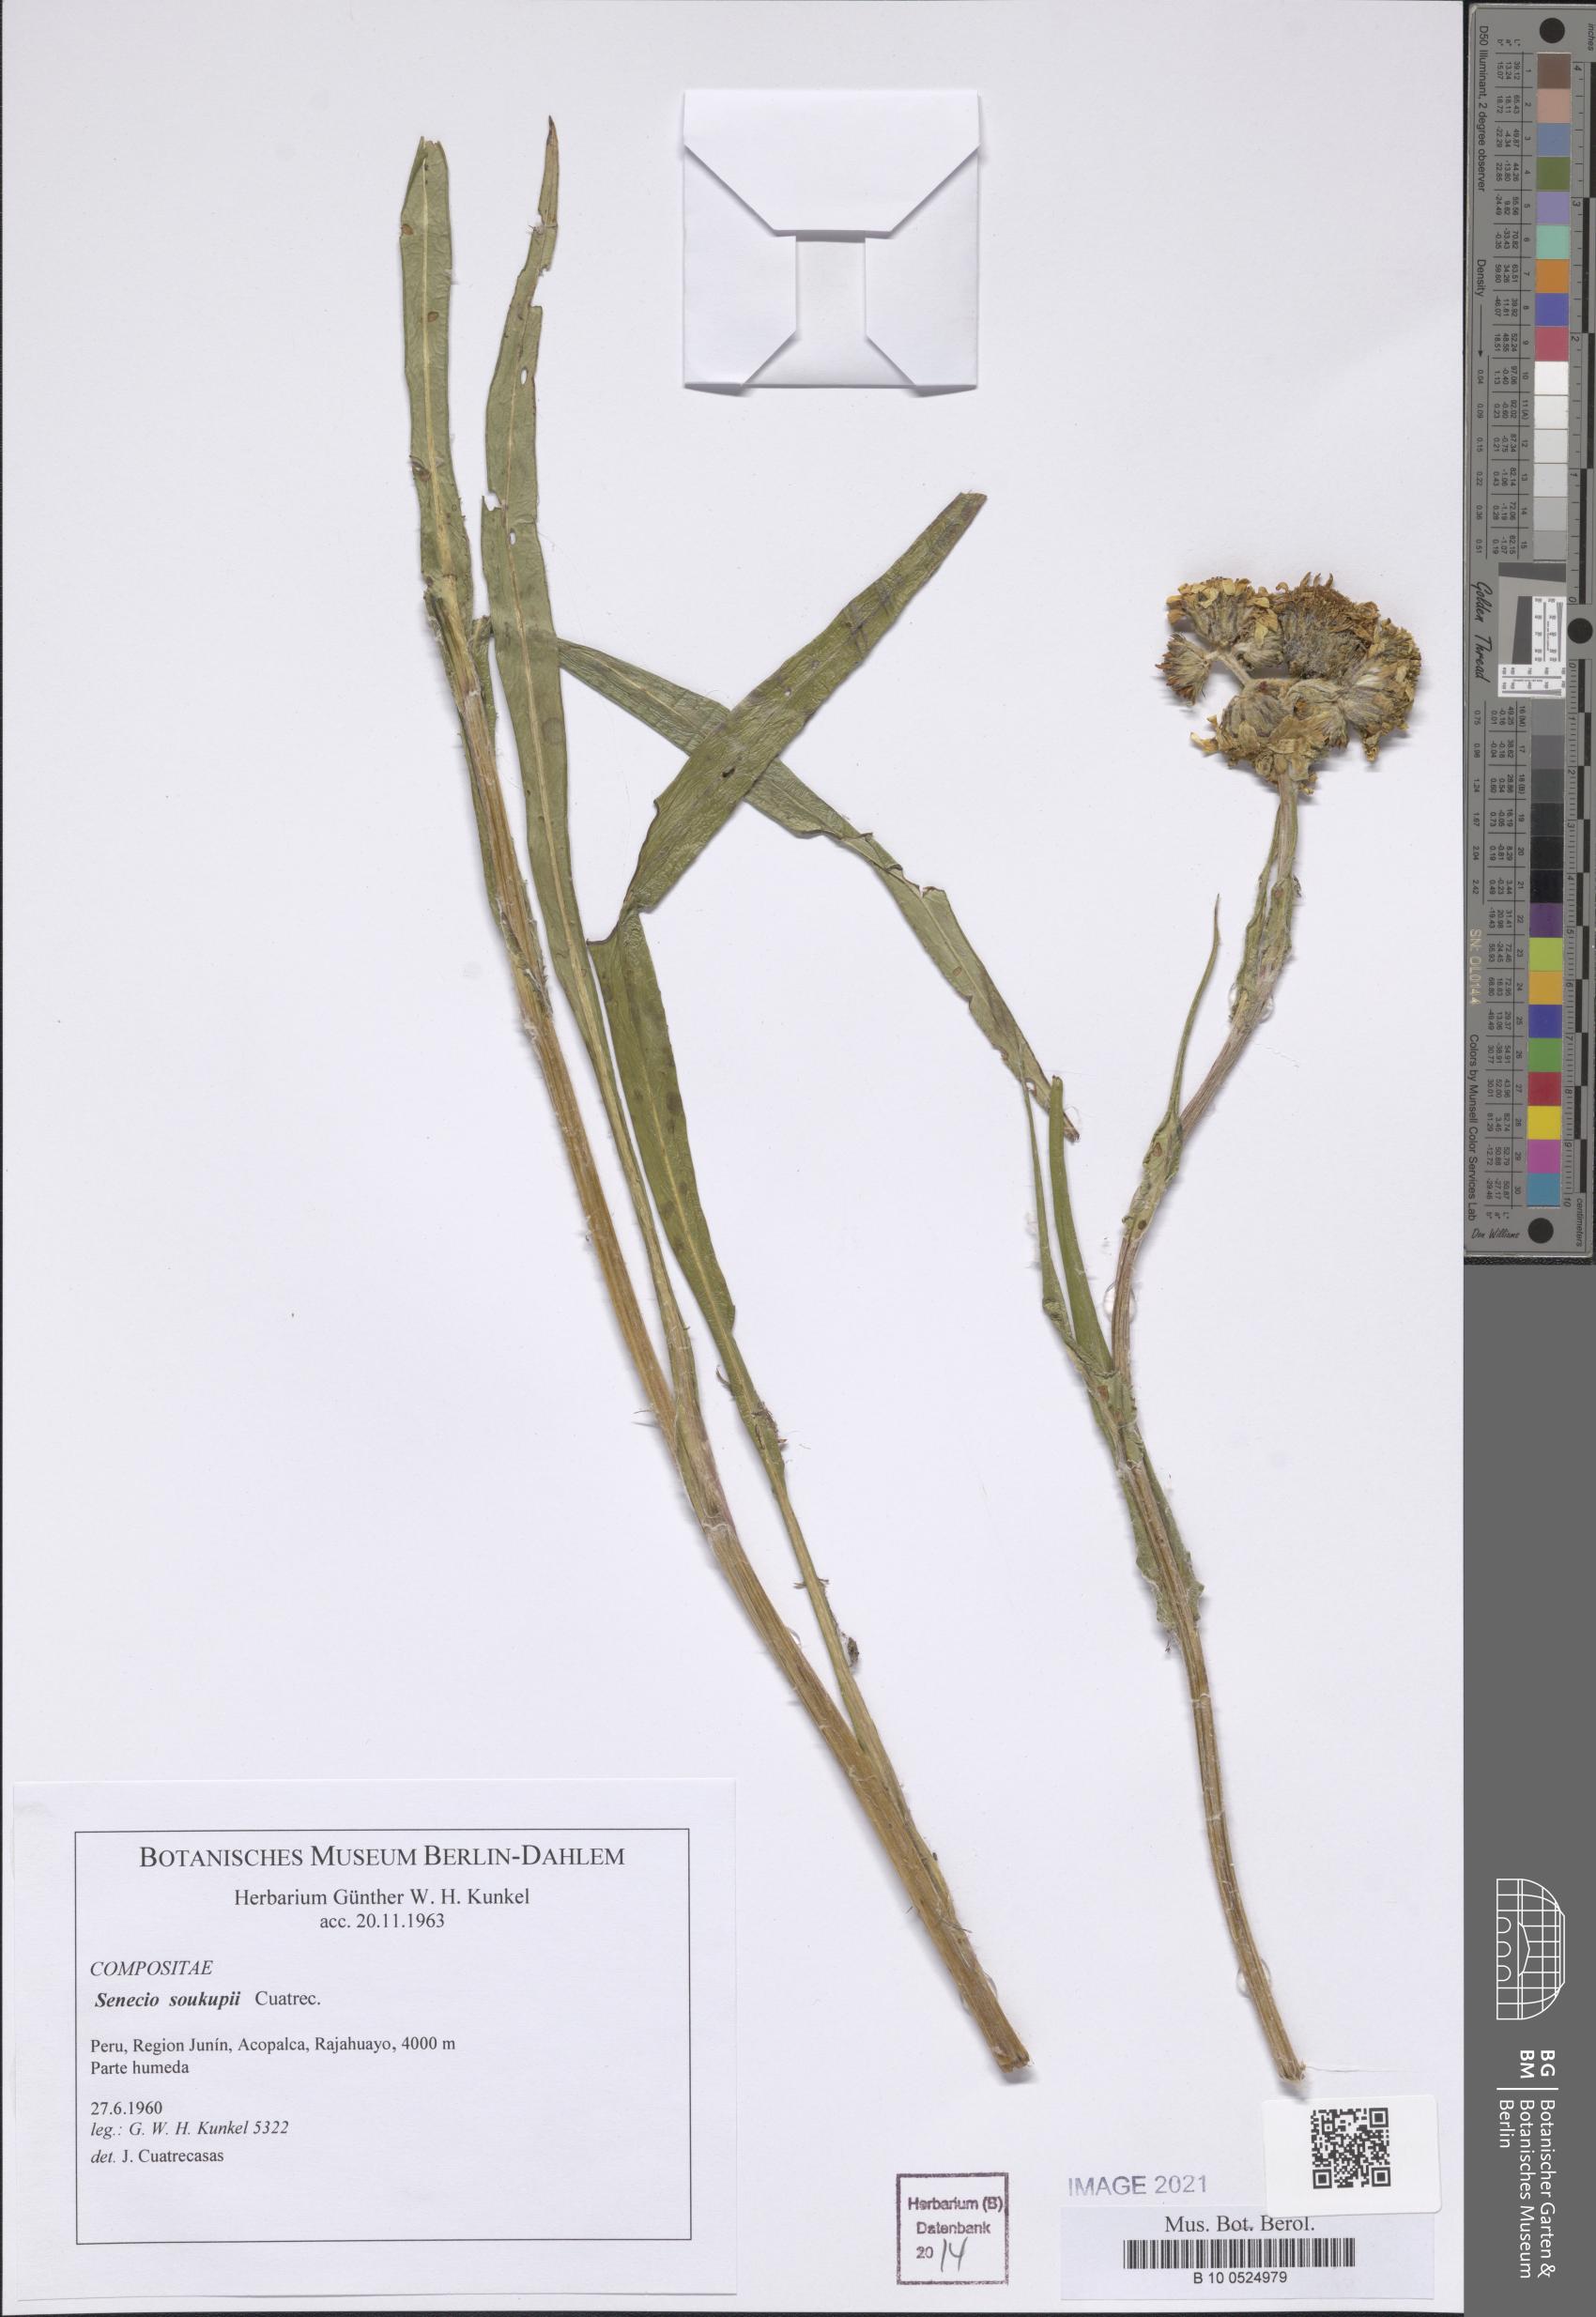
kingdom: Plantae
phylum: Tracheophyta
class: Magnoliopsida
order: Asterales
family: Asteraceae
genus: Senecio
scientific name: Senecio soukupii
